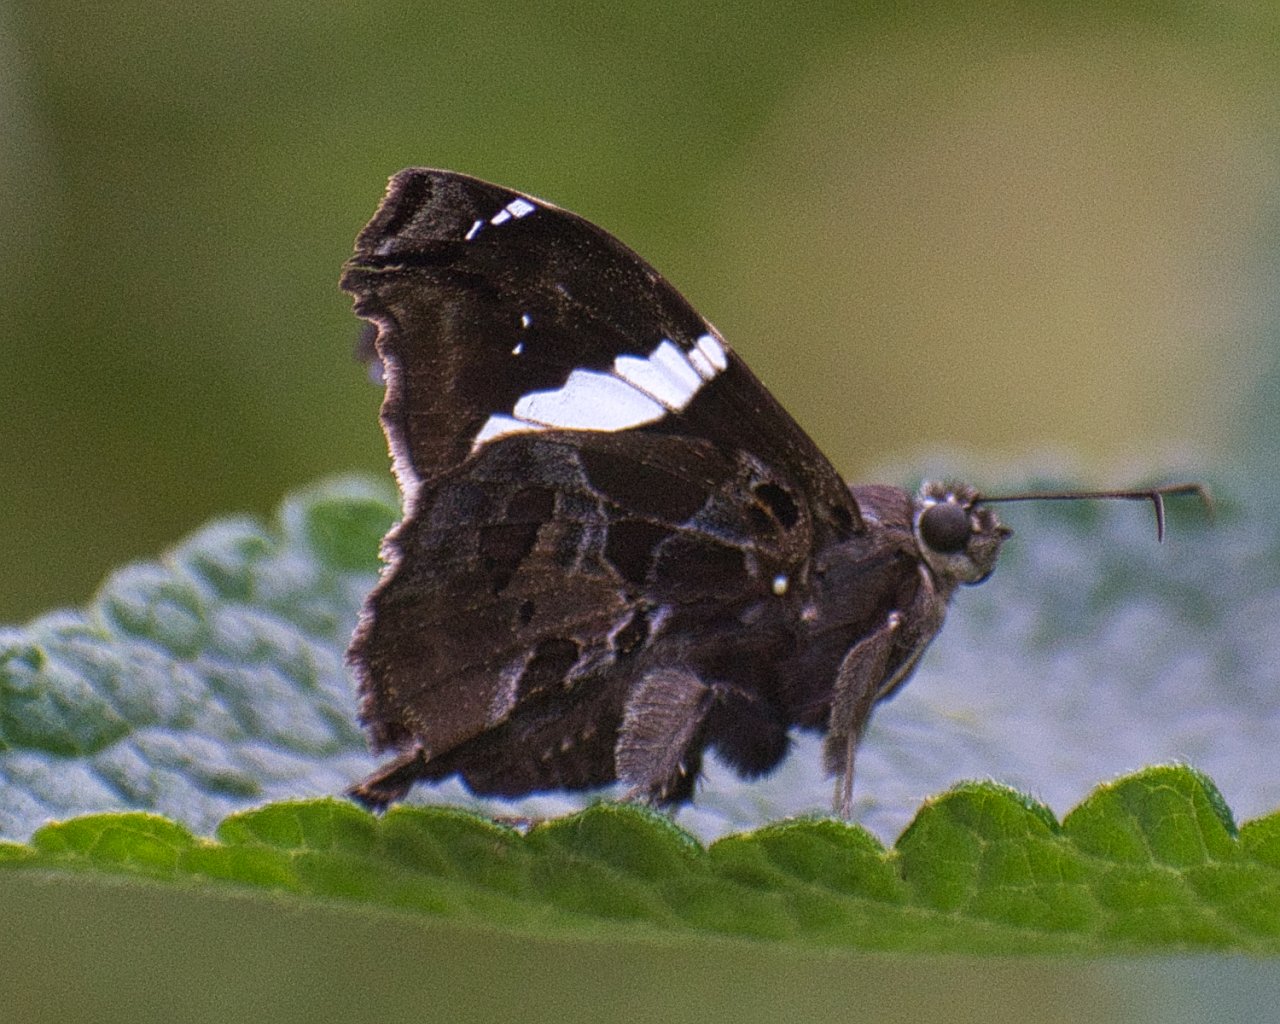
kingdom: Animalia
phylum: Arthropoda
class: Insecta
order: Lepidoptera
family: Hesperiidae
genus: Spathilepia
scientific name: Spathilepia clonius
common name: Falcate Skipper
